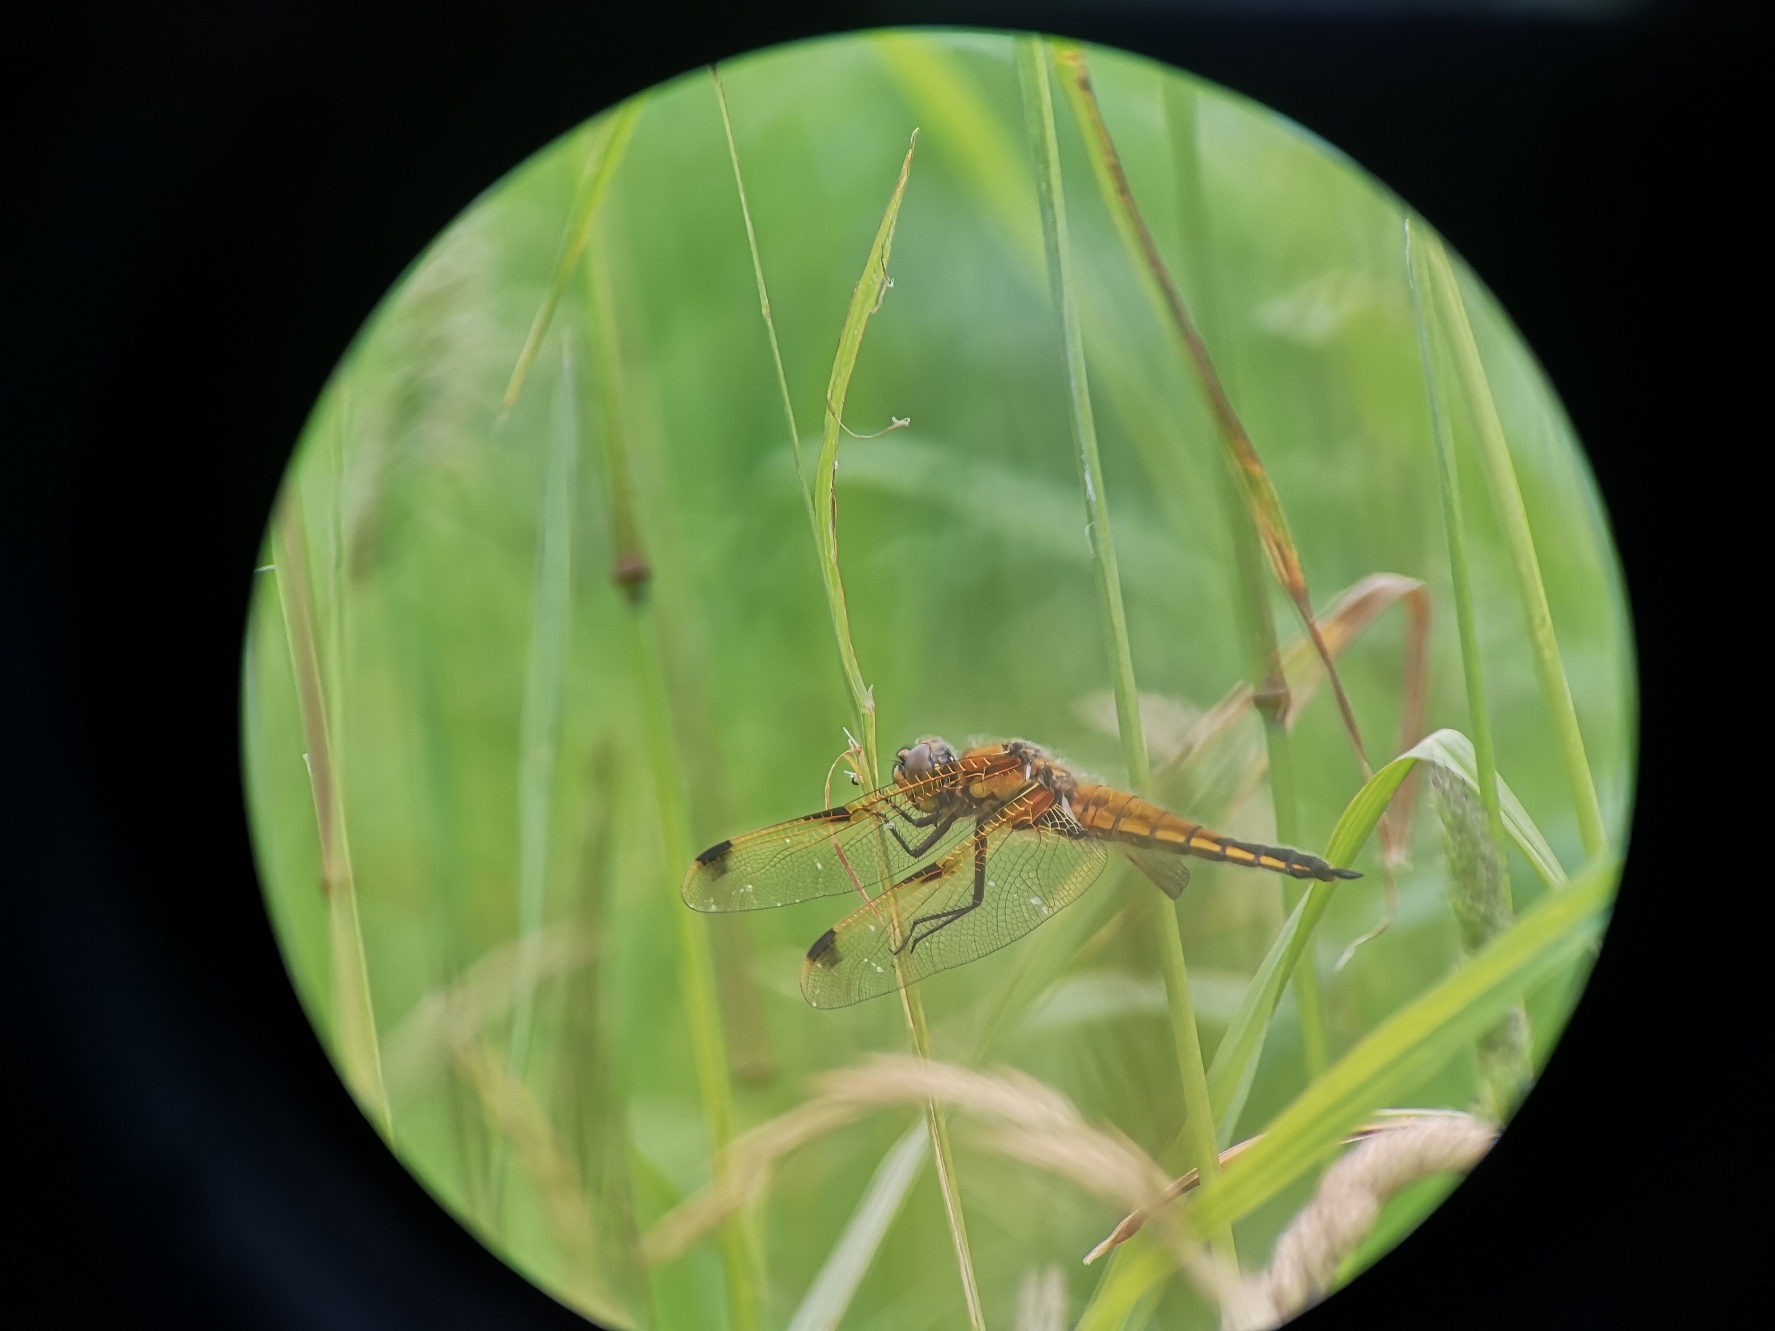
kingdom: Animalia
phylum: Arthropoda
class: Insecta
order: Odonata
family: Libellulidae
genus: Libellula
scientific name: Libellula quadrimaculata
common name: Fireplettet libel
